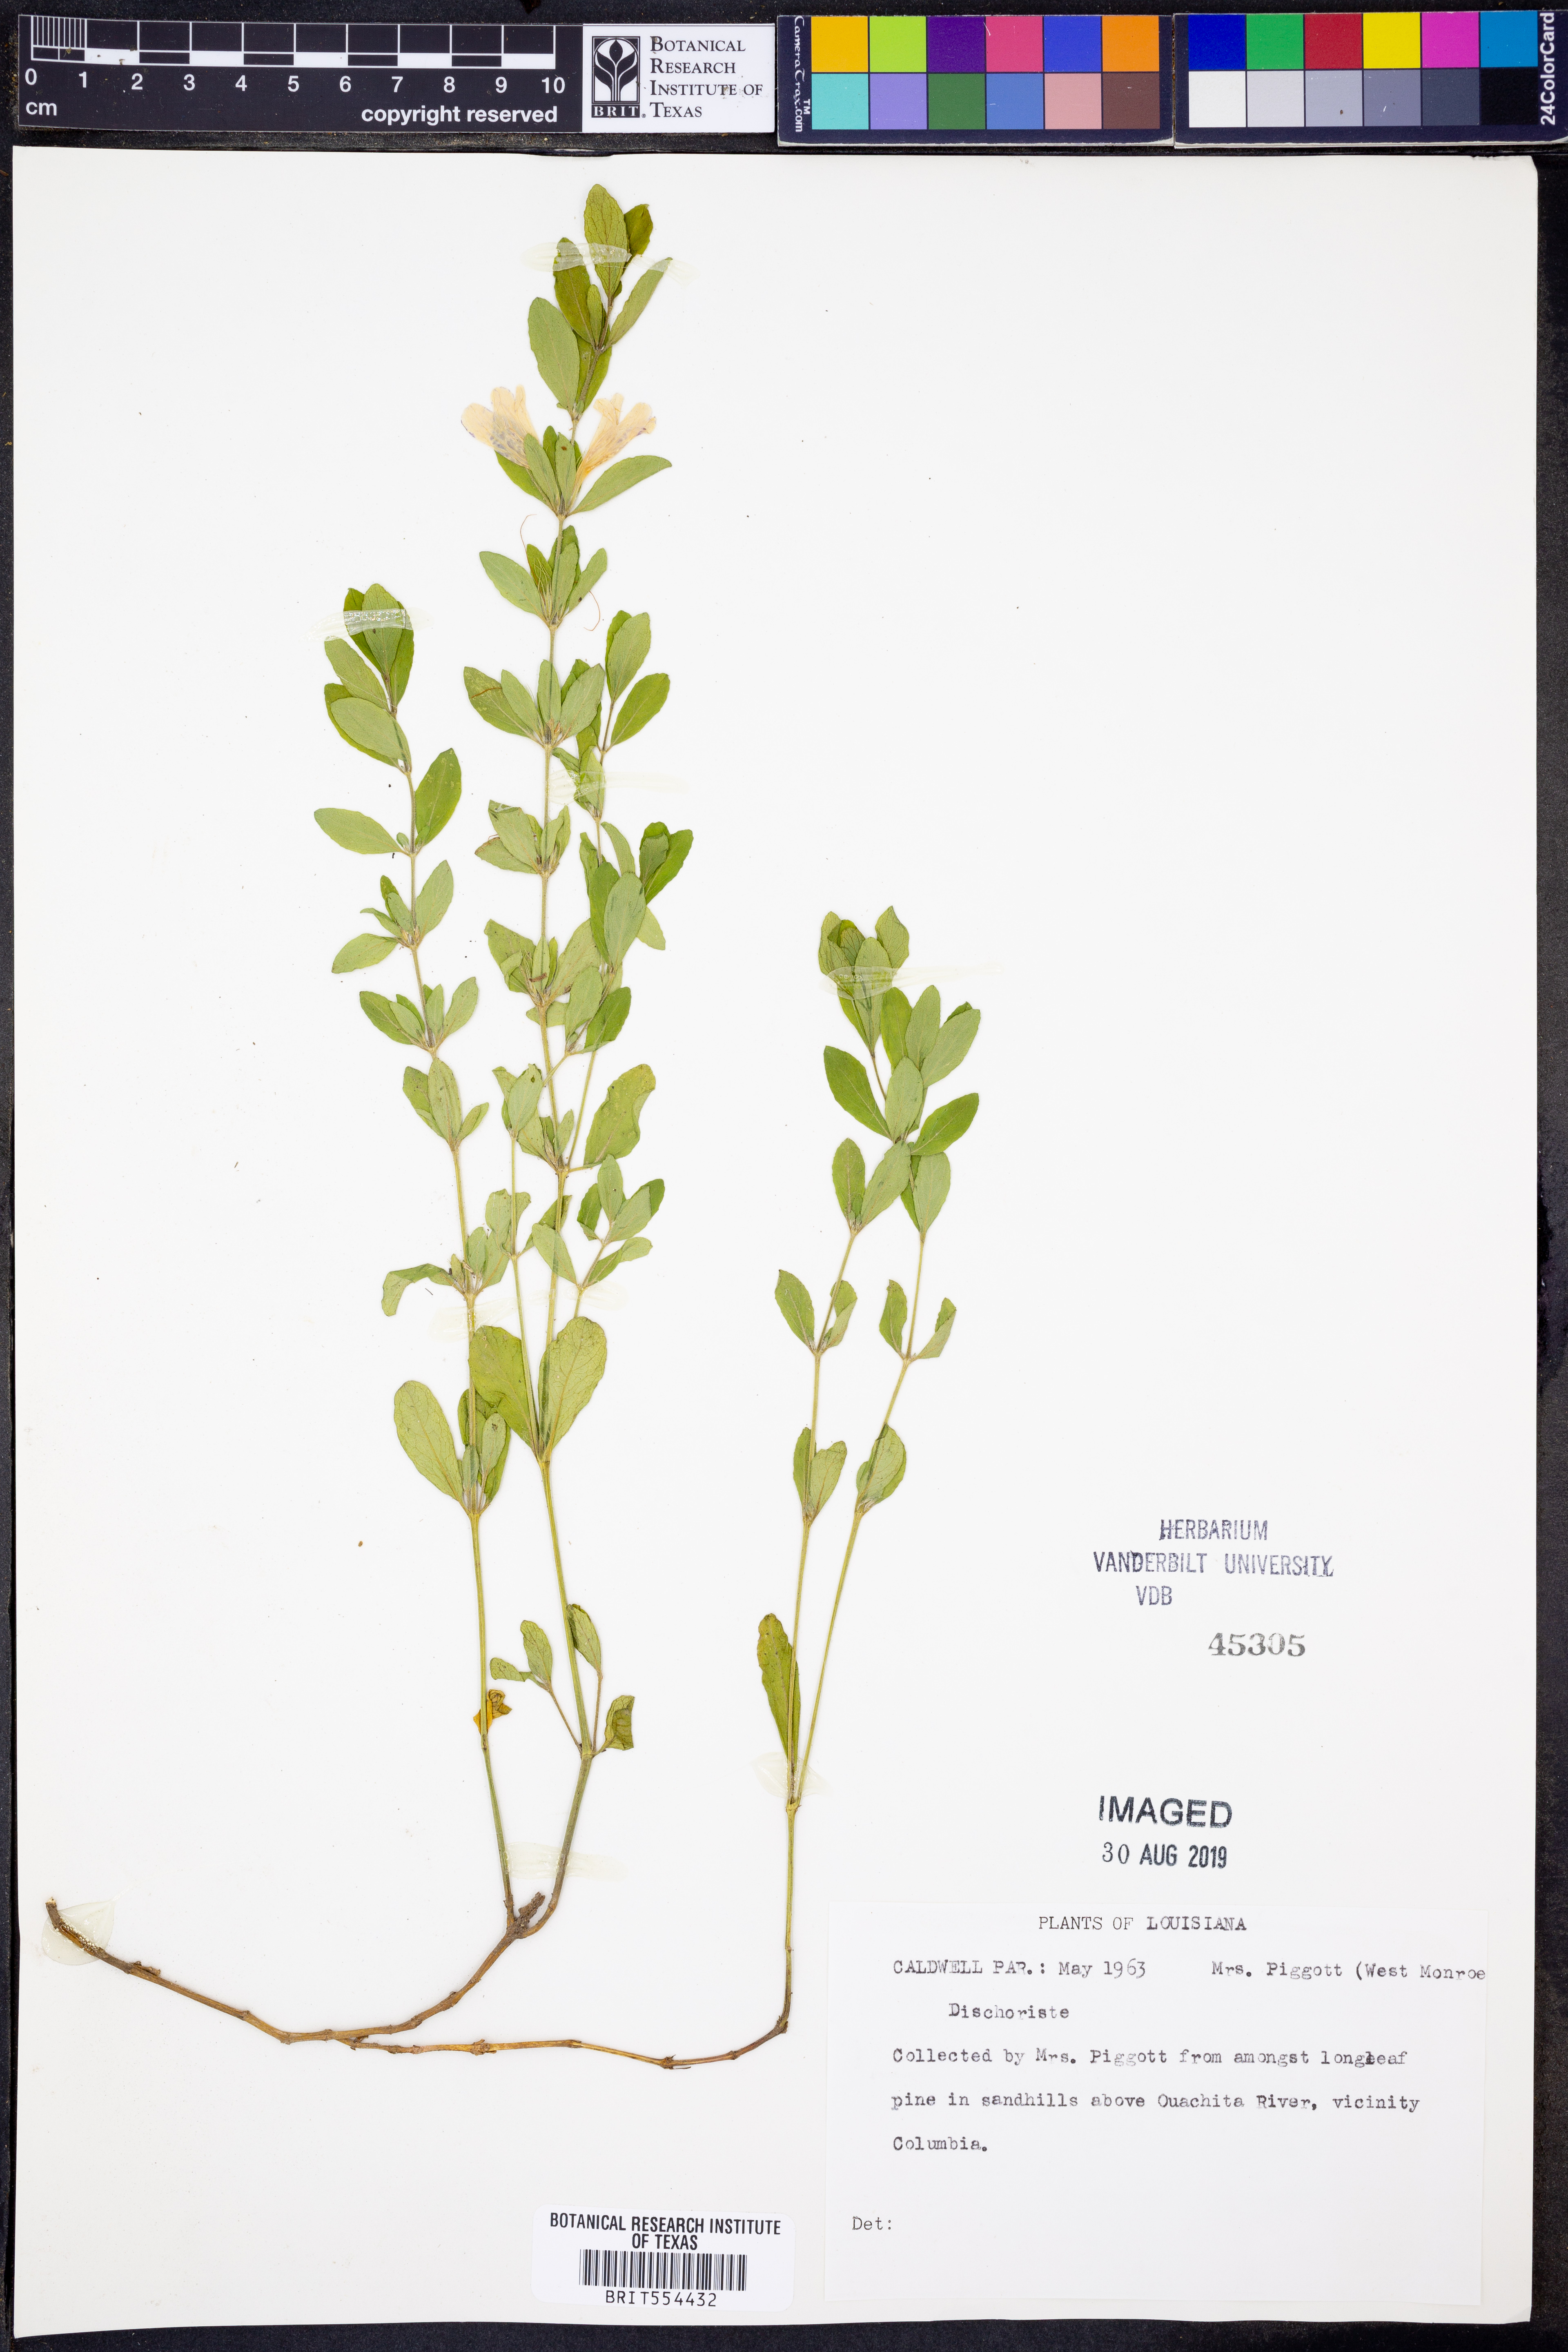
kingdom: Plantae
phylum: Tracheophyta
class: Magnoliopsida
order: Lamiales
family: Acanthaceae
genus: Dyschoriste
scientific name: Dyschoriste
